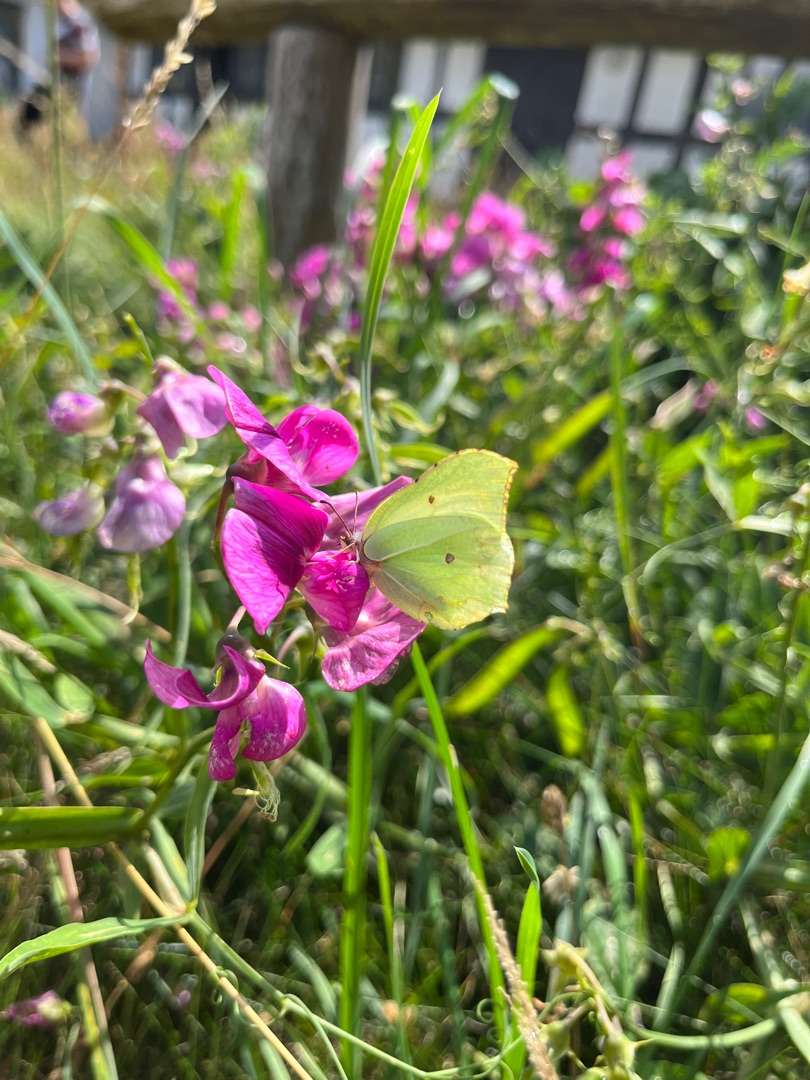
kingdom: Animalia
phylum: Arthropoda
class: Insecta
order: Lepidoptera
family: Pieridae
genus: Gonepteryx
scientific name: Gonepteryx rhamni
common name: Citronsommerfugl
